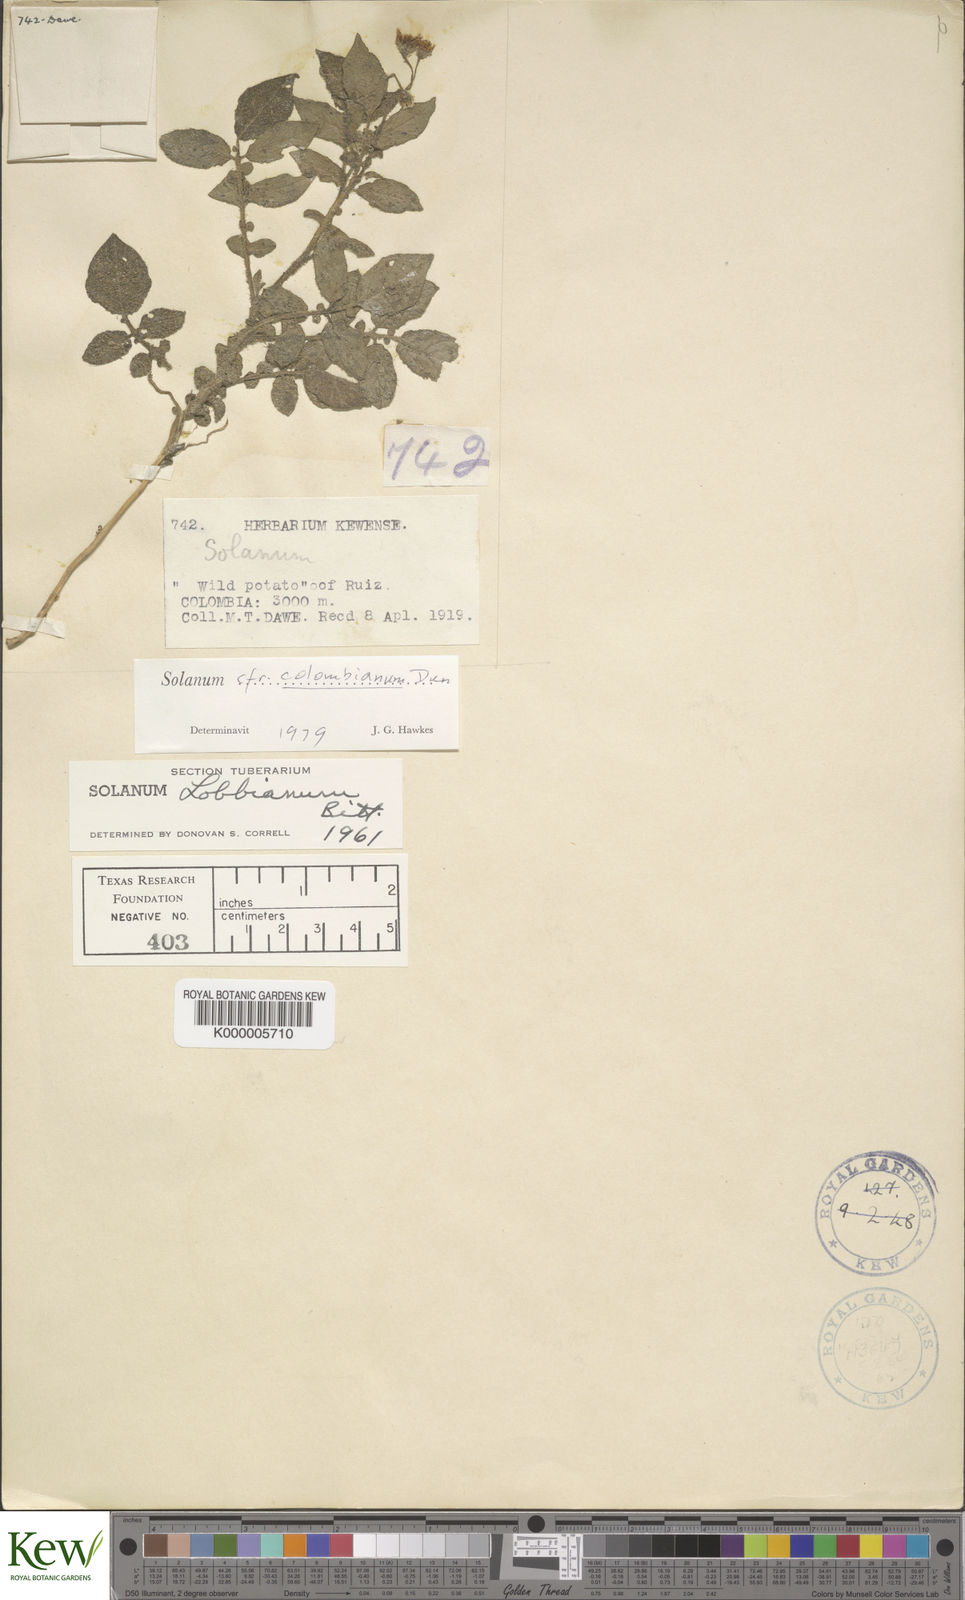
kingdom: Plantae
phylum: Tracheophyta
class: Magnoliopsida
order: Solanales
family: Solanaceae
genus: Solanum
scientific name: Solanum colombianum
